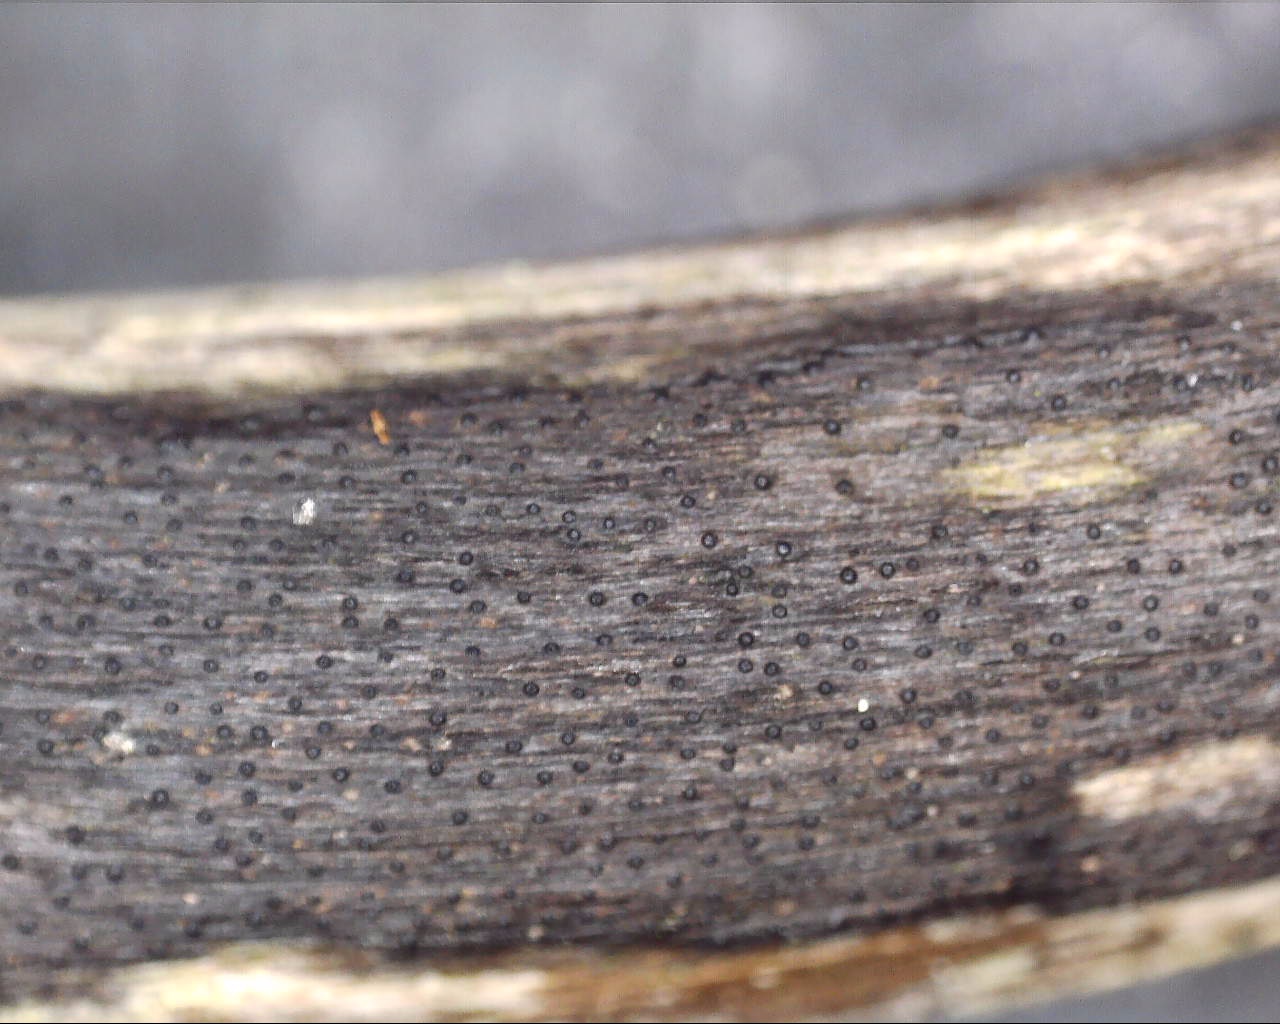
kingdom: Fungi
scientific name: Fungi
